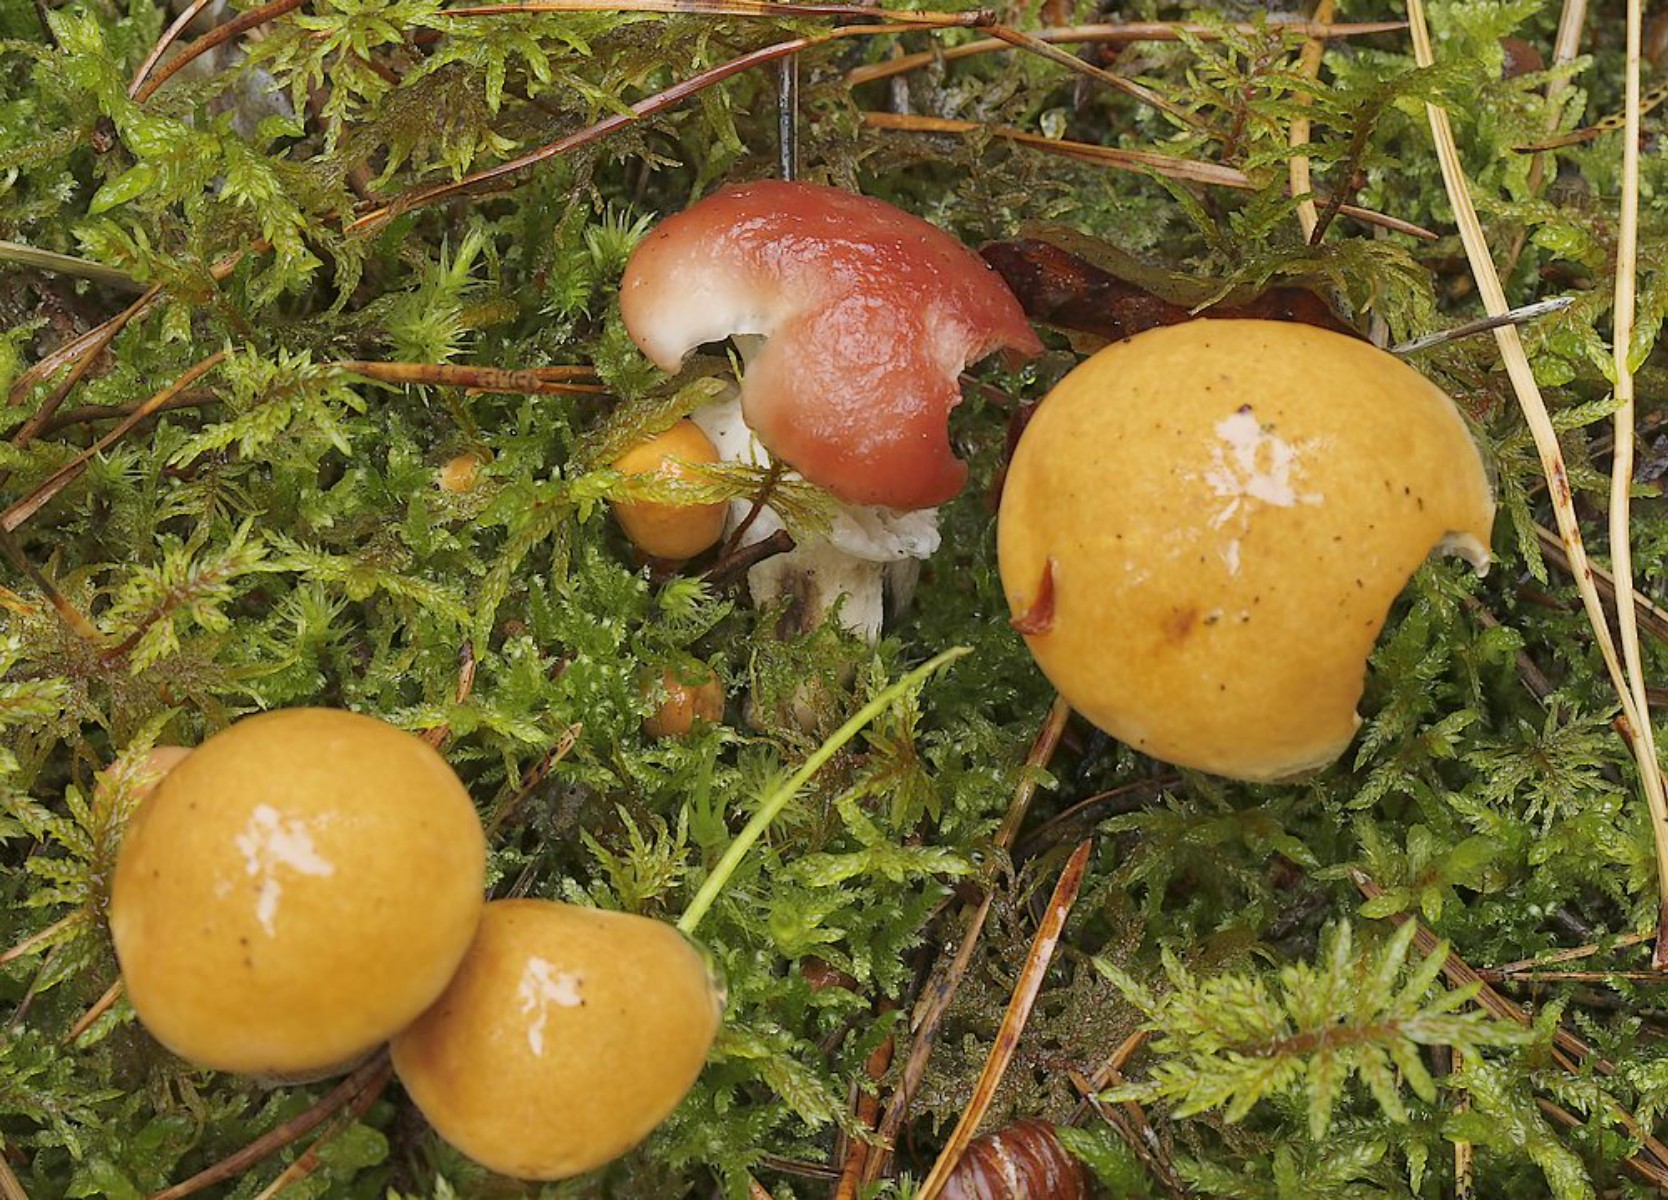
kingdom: Fungi
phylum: Basidiomycota
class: Agaricomycetes
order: Boletales
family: Gomphidiaceae
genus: Gomphidius
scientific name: Gomphidius roseus
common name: rosenrød slimslør
